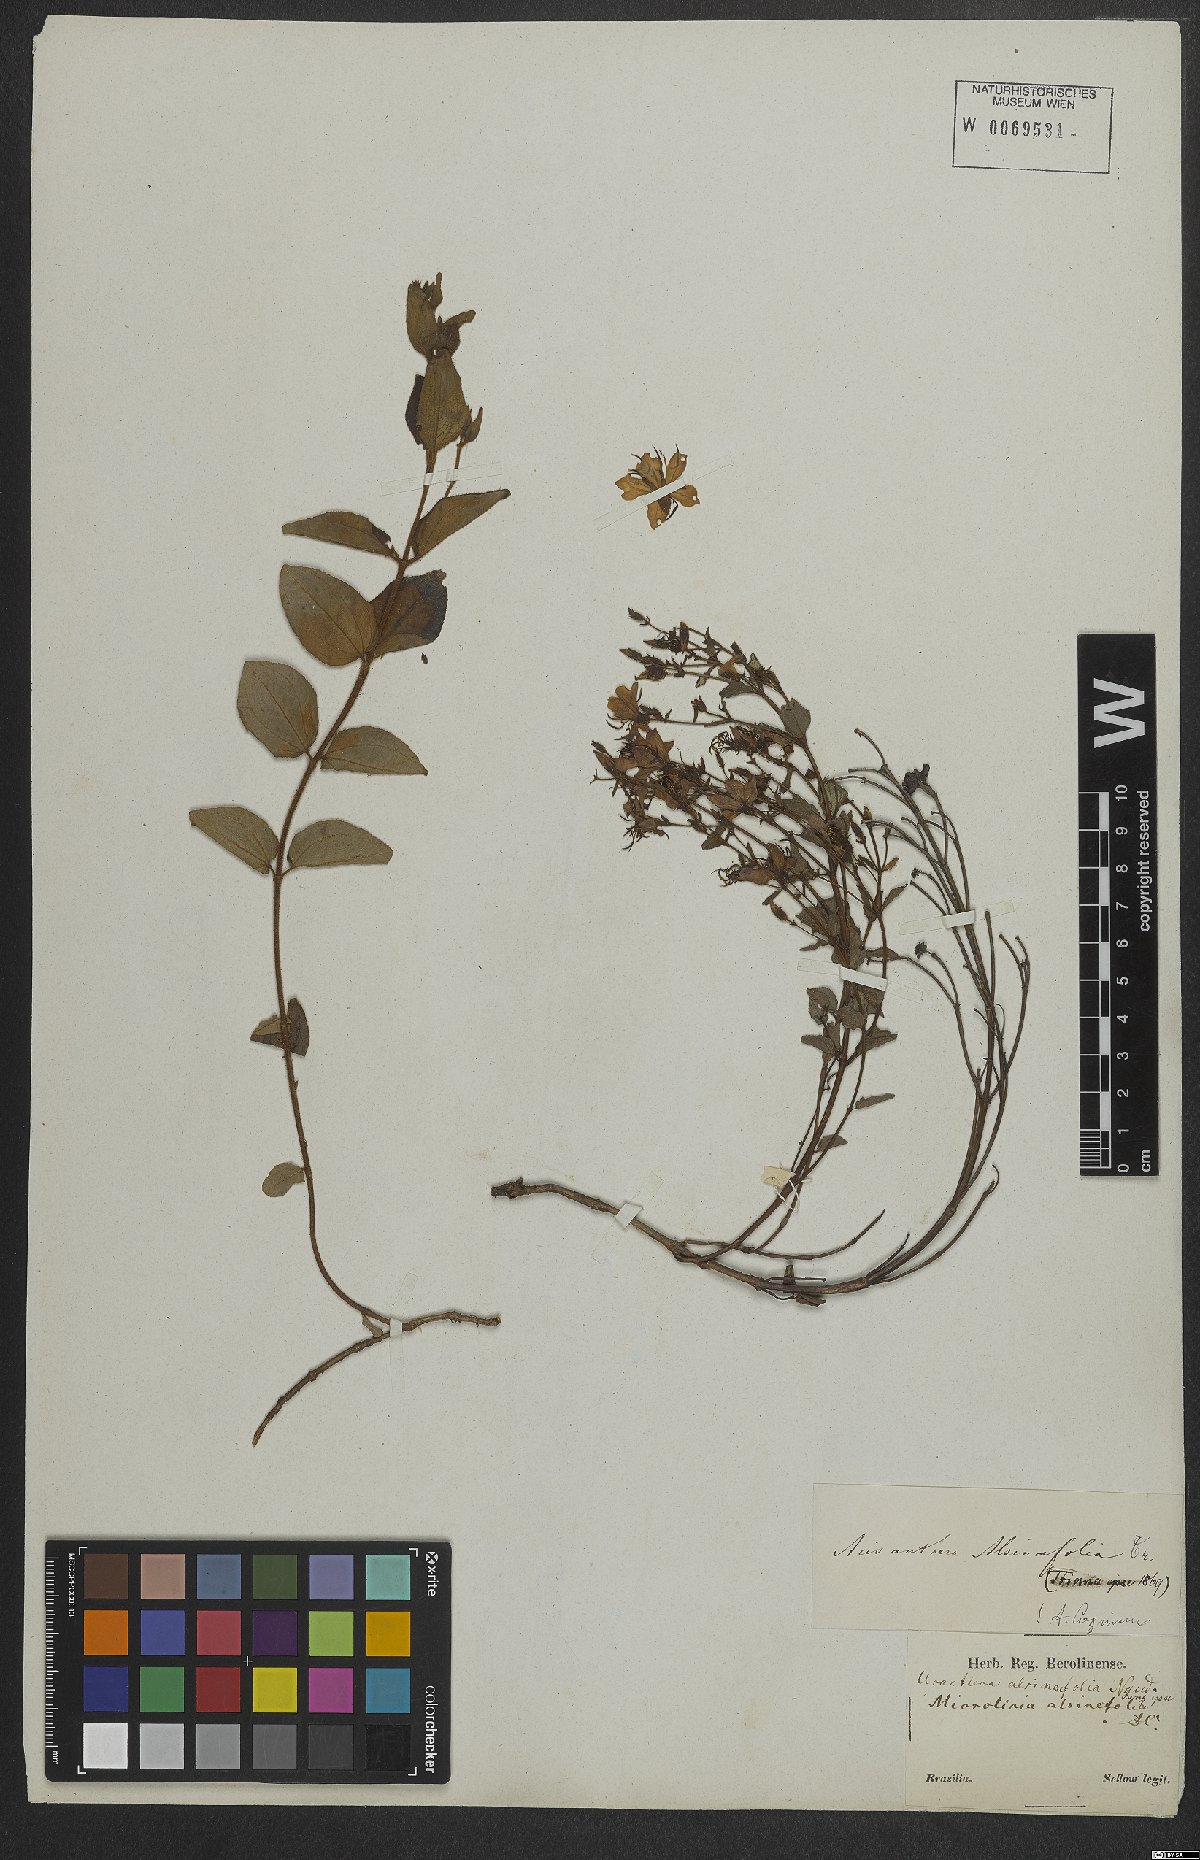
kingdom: Plantae
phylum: Tracheophyta
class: Magnoliopsida
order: Myrtales
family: Melastomataceae
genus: Acisanthera
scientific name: Acisanthera alsinefolia
